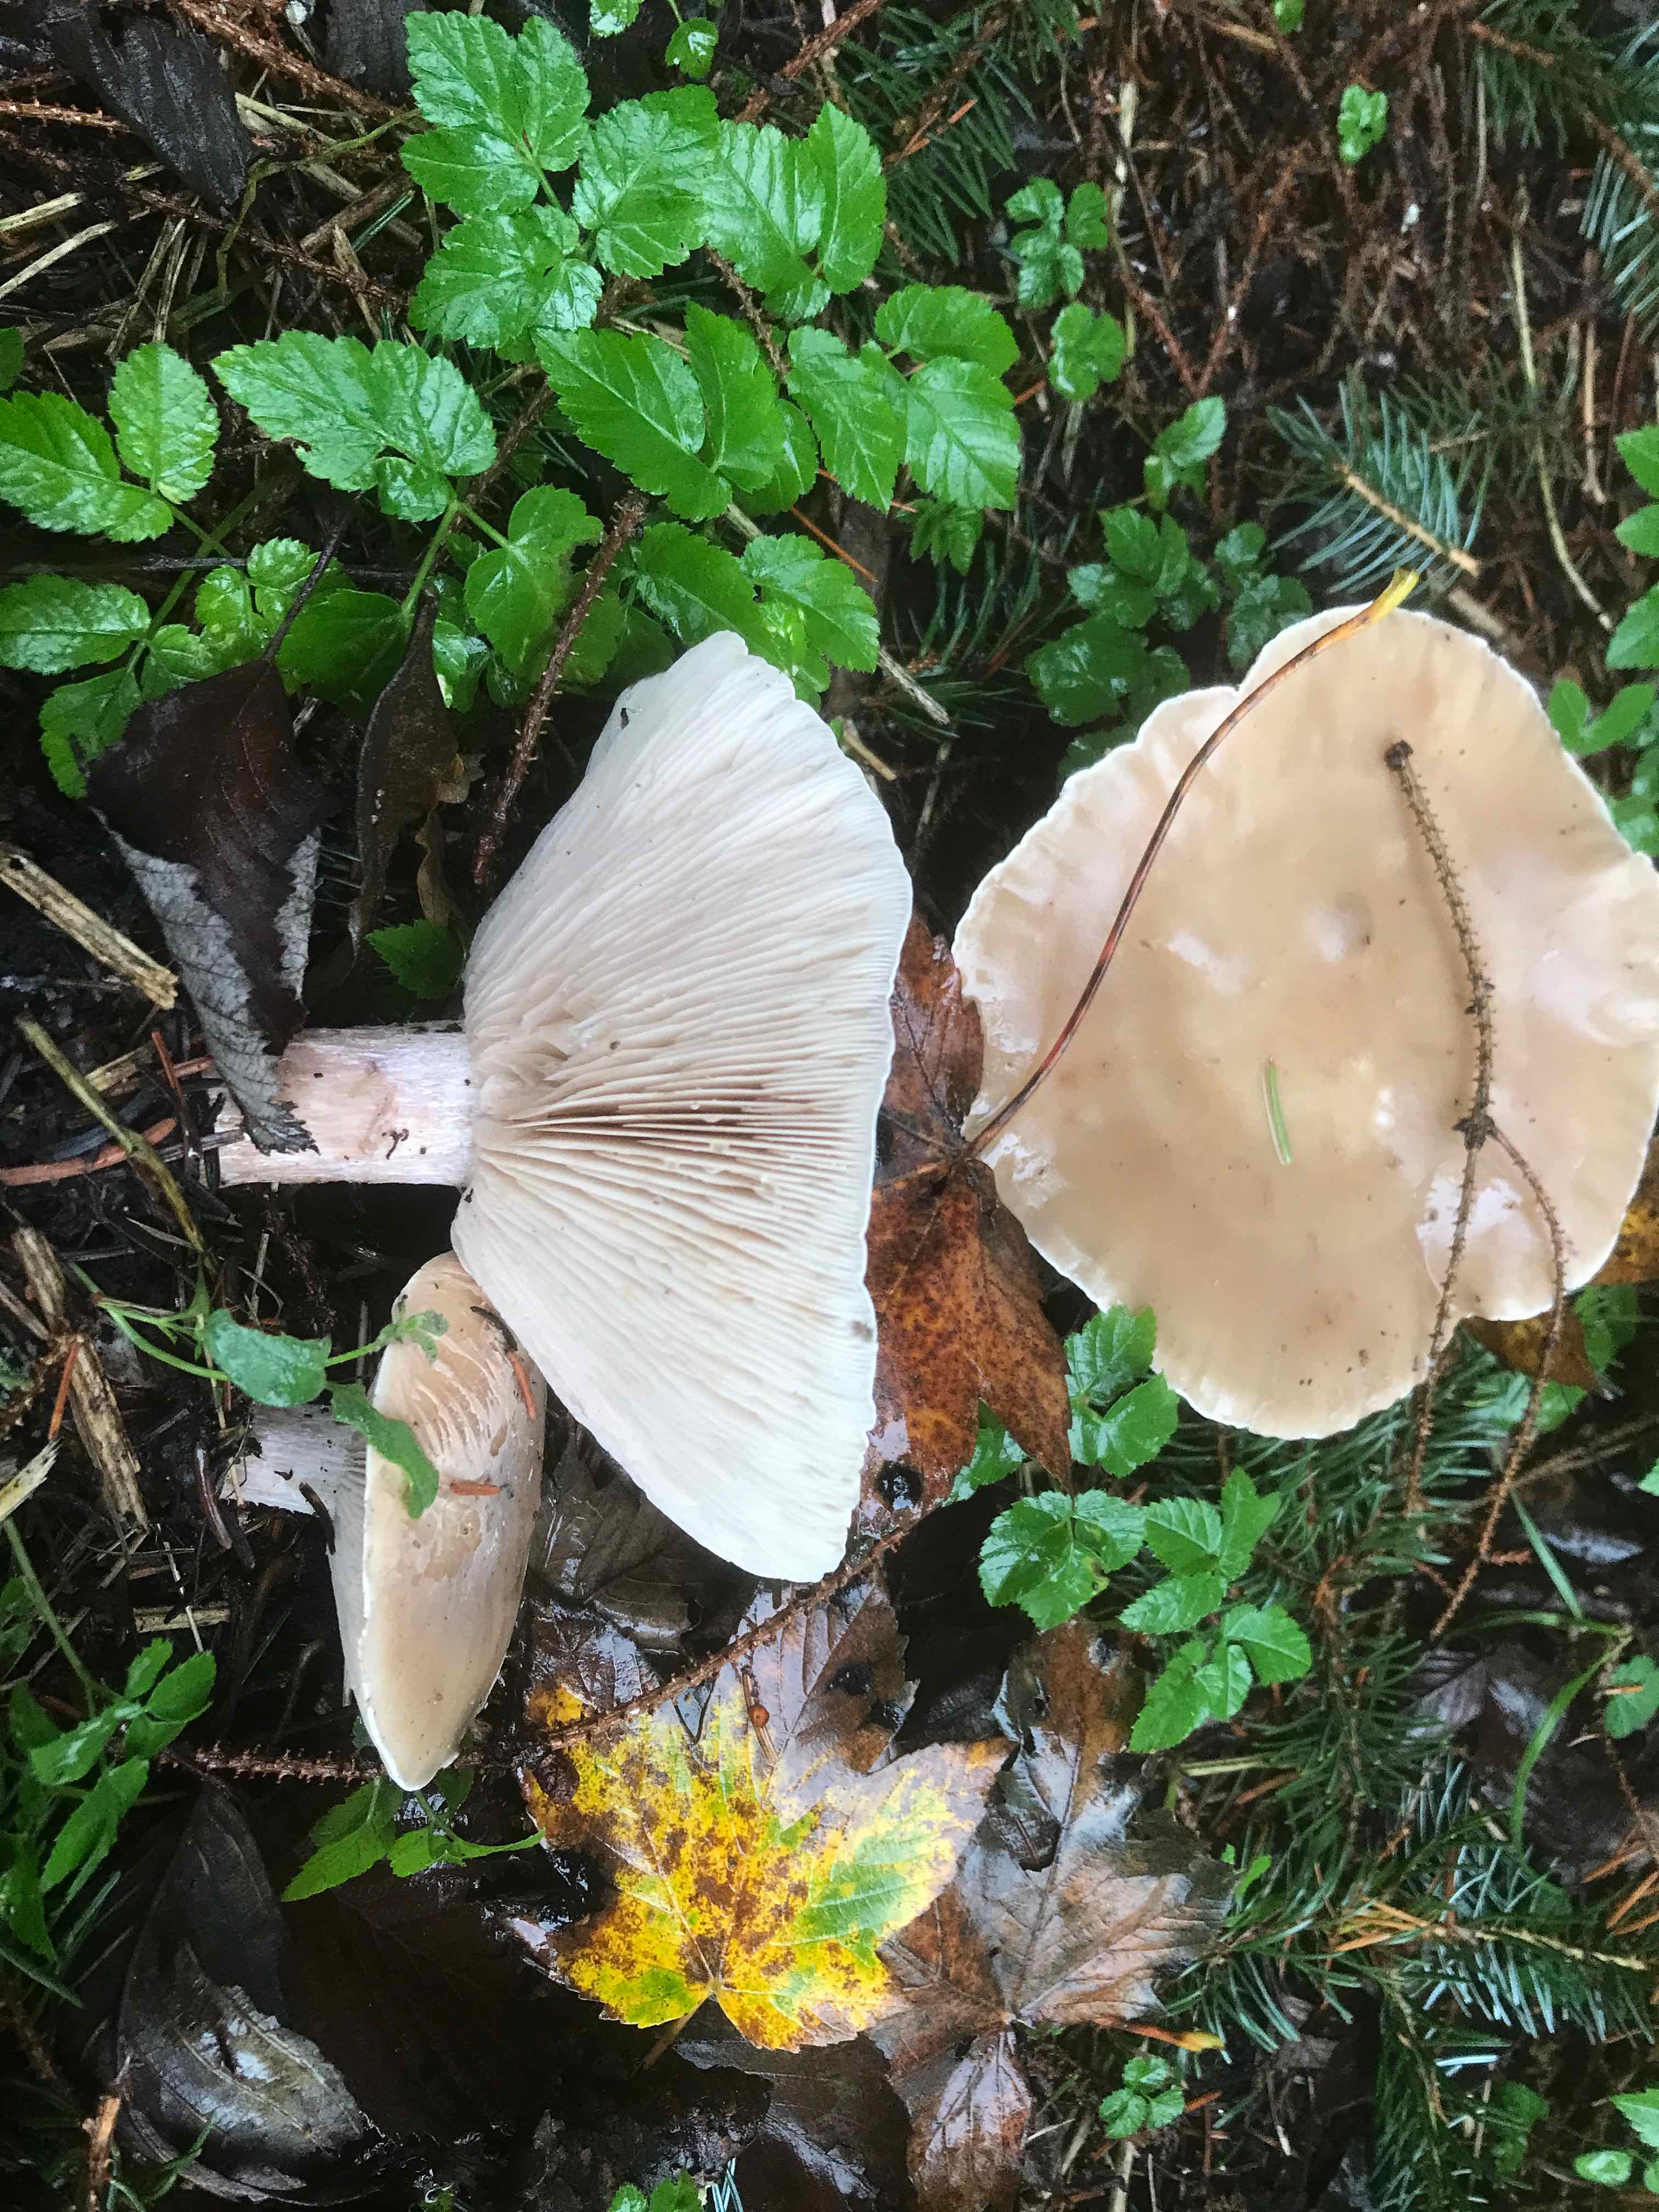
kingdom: Fungi
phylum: Basidiomycota
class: Agaricomycetes
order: Agaricales
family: Tricholomataceae
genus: Lepista
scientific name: Lepista personata
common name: bleg hekseringshat
